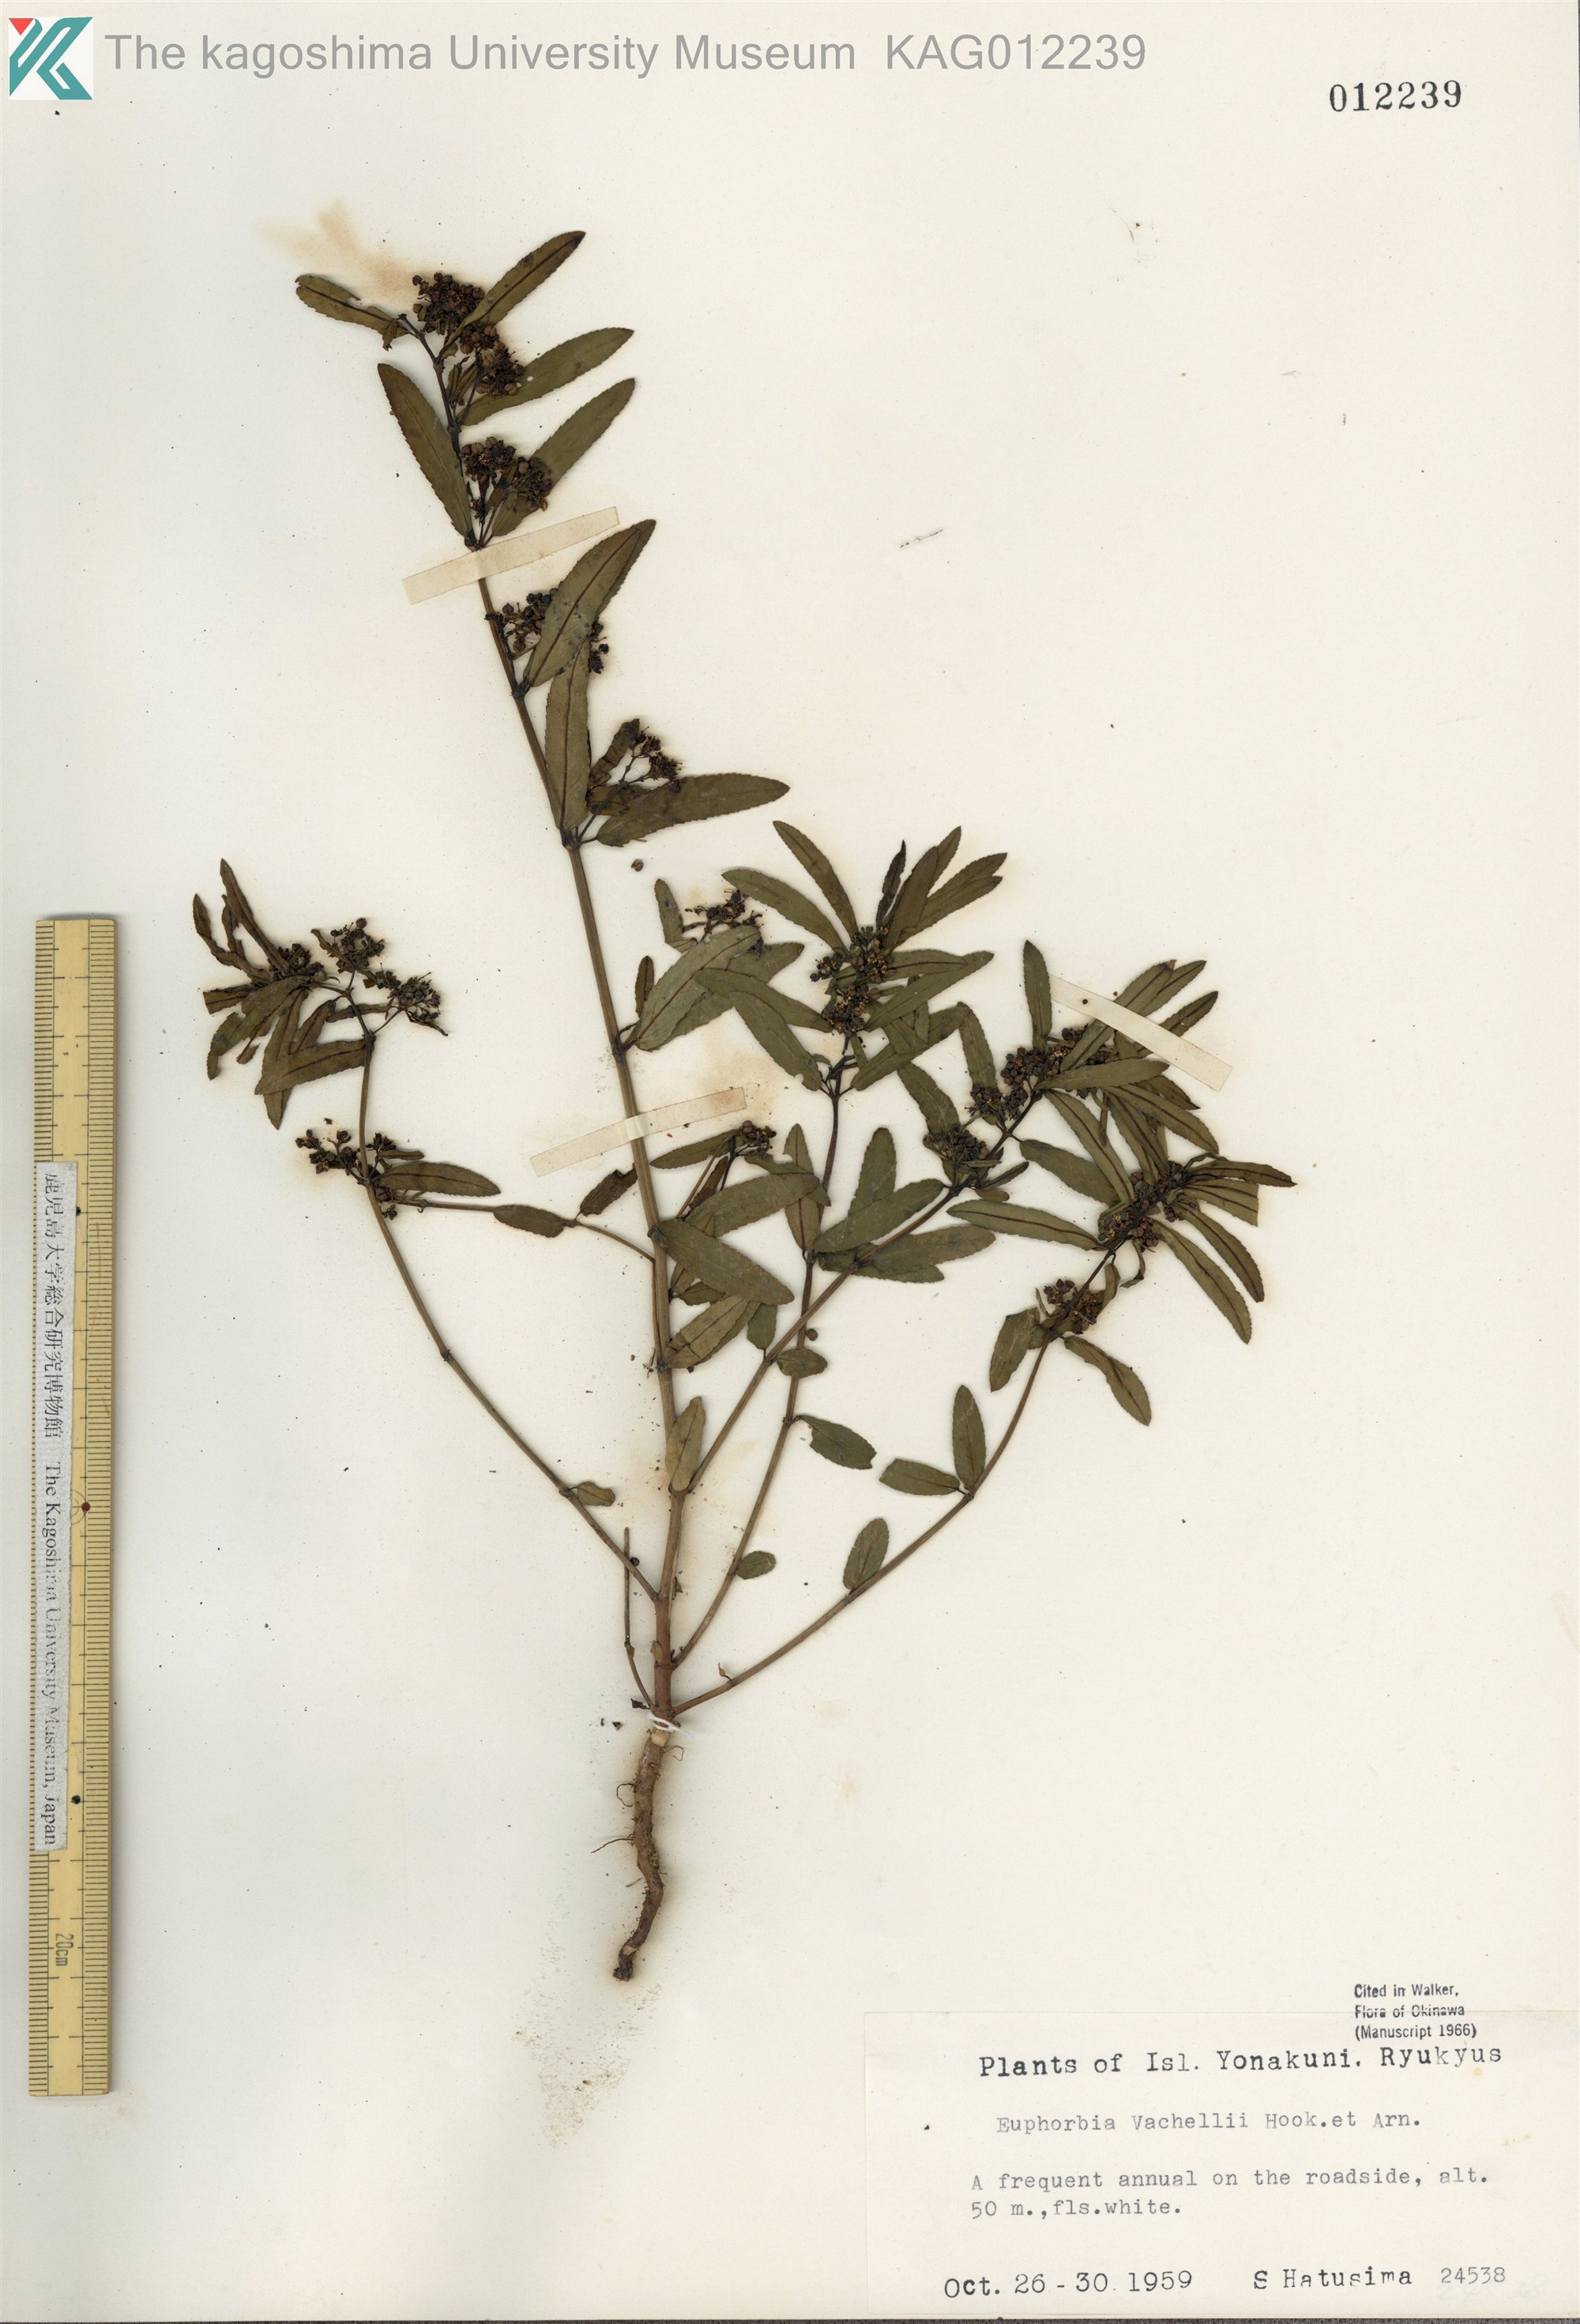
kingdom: Plantae
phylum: Tracheophyta
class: Magnoliopsida
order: Malpighiales
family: Euphorbiaceae
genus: Euphorbia
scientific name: Euphorbia bifida
